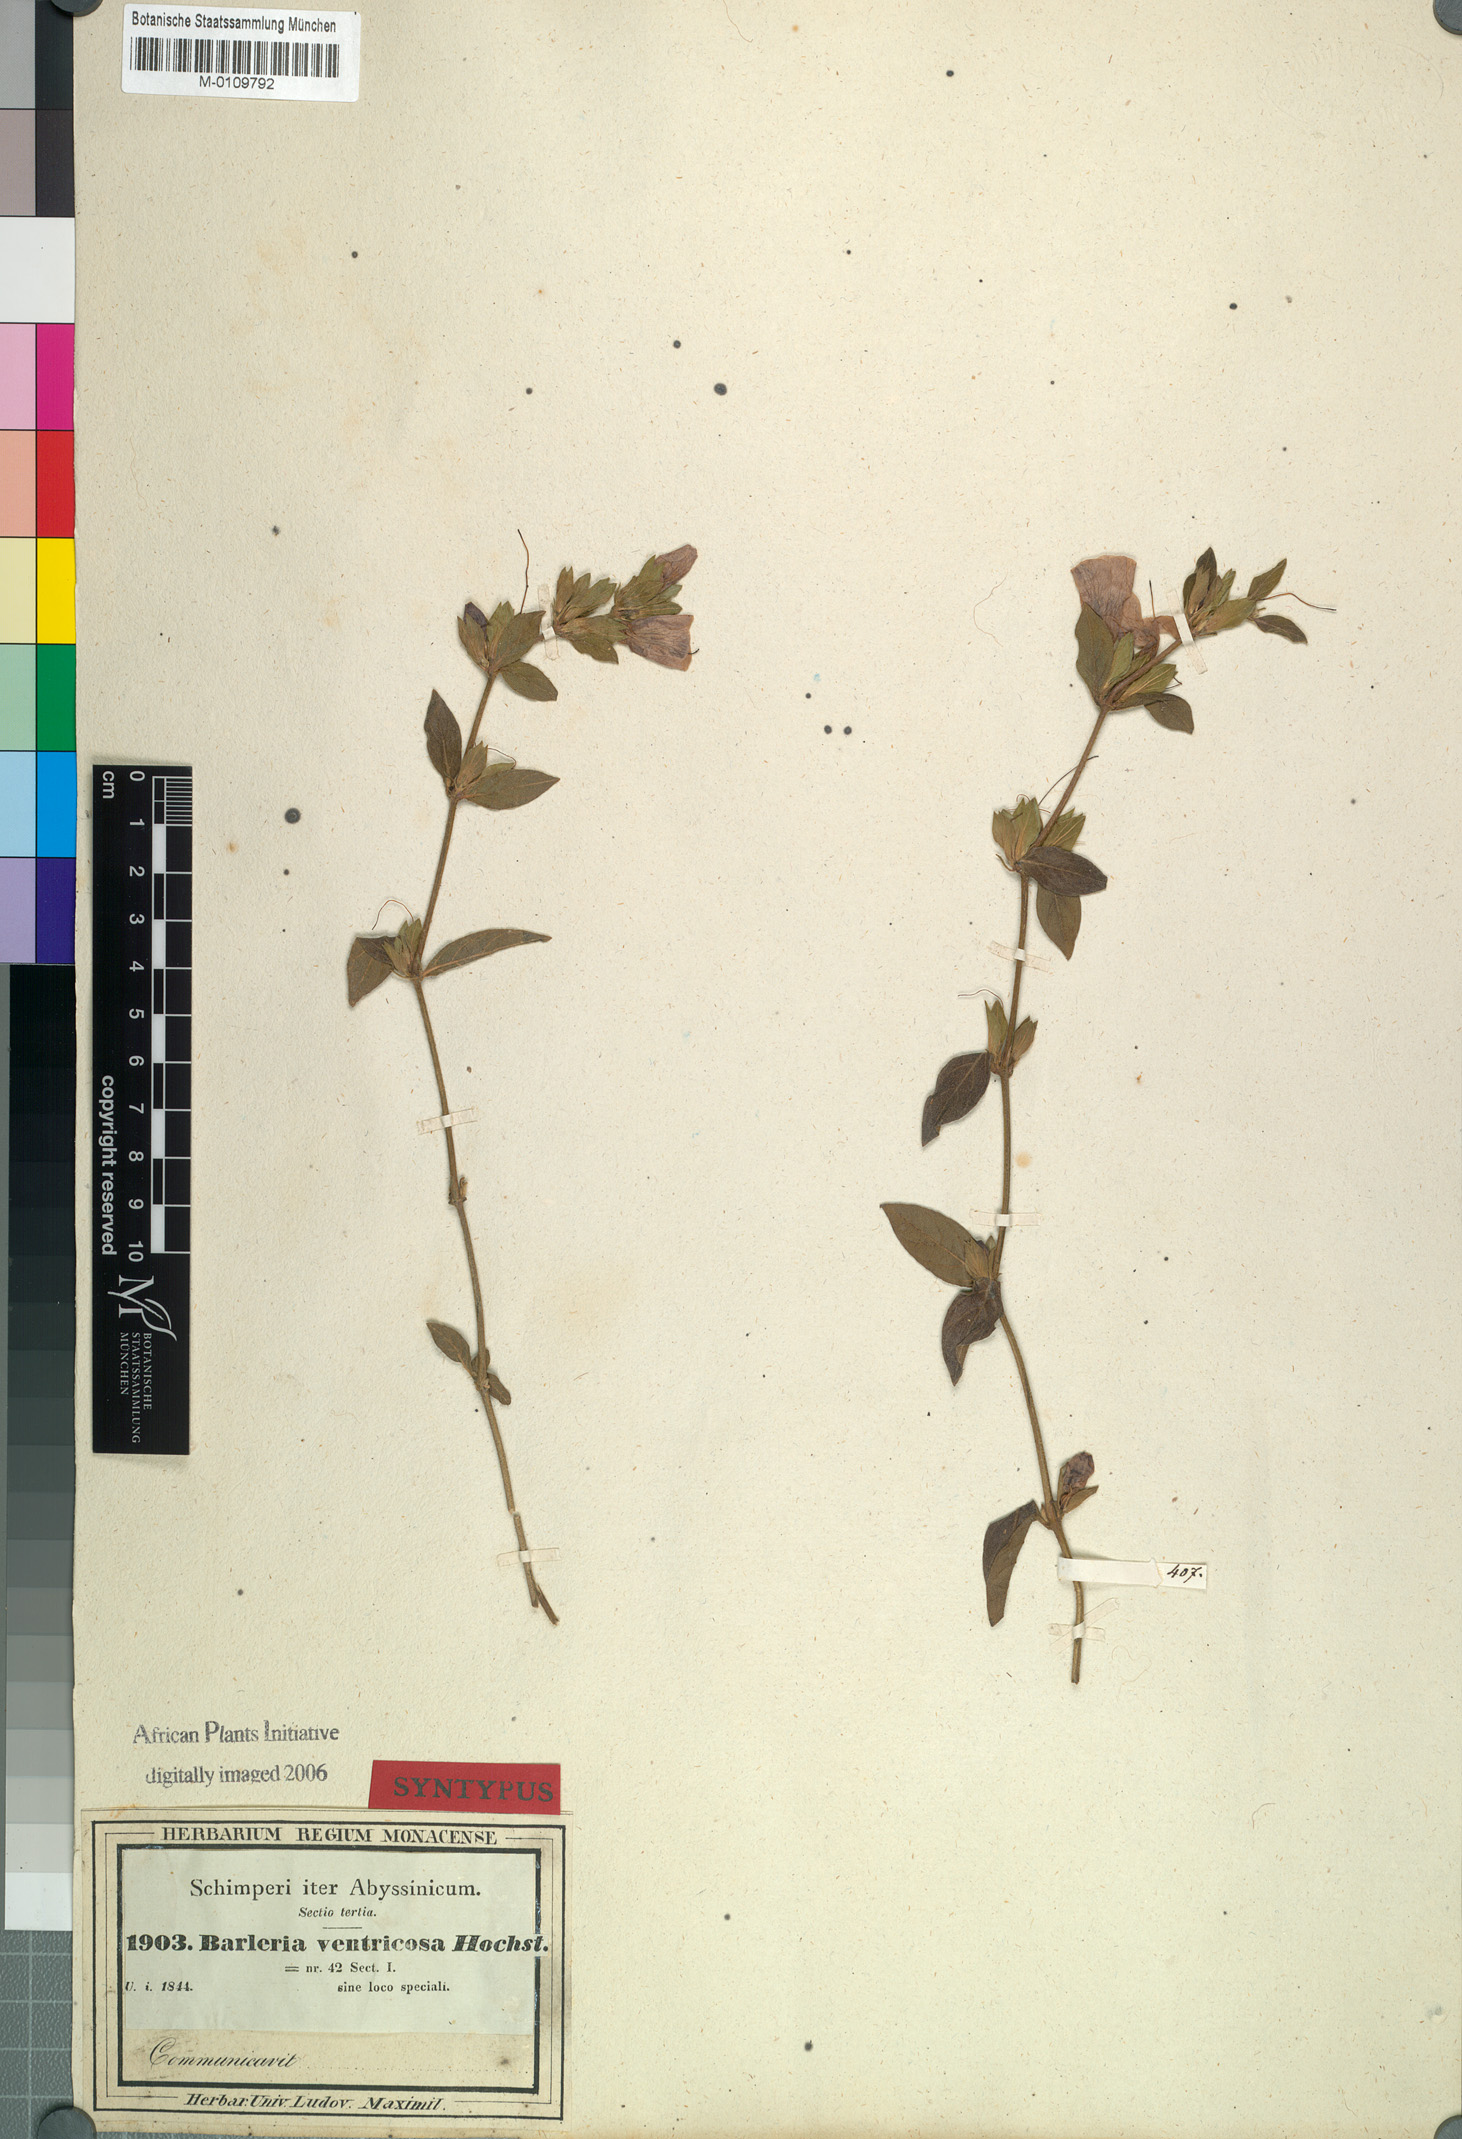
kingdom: Plantae
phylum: Tracheophyta
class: Magnoliopsida
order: Lamiales
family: Acanthaceae
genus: Barleria
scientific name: Barleria ventricosa
